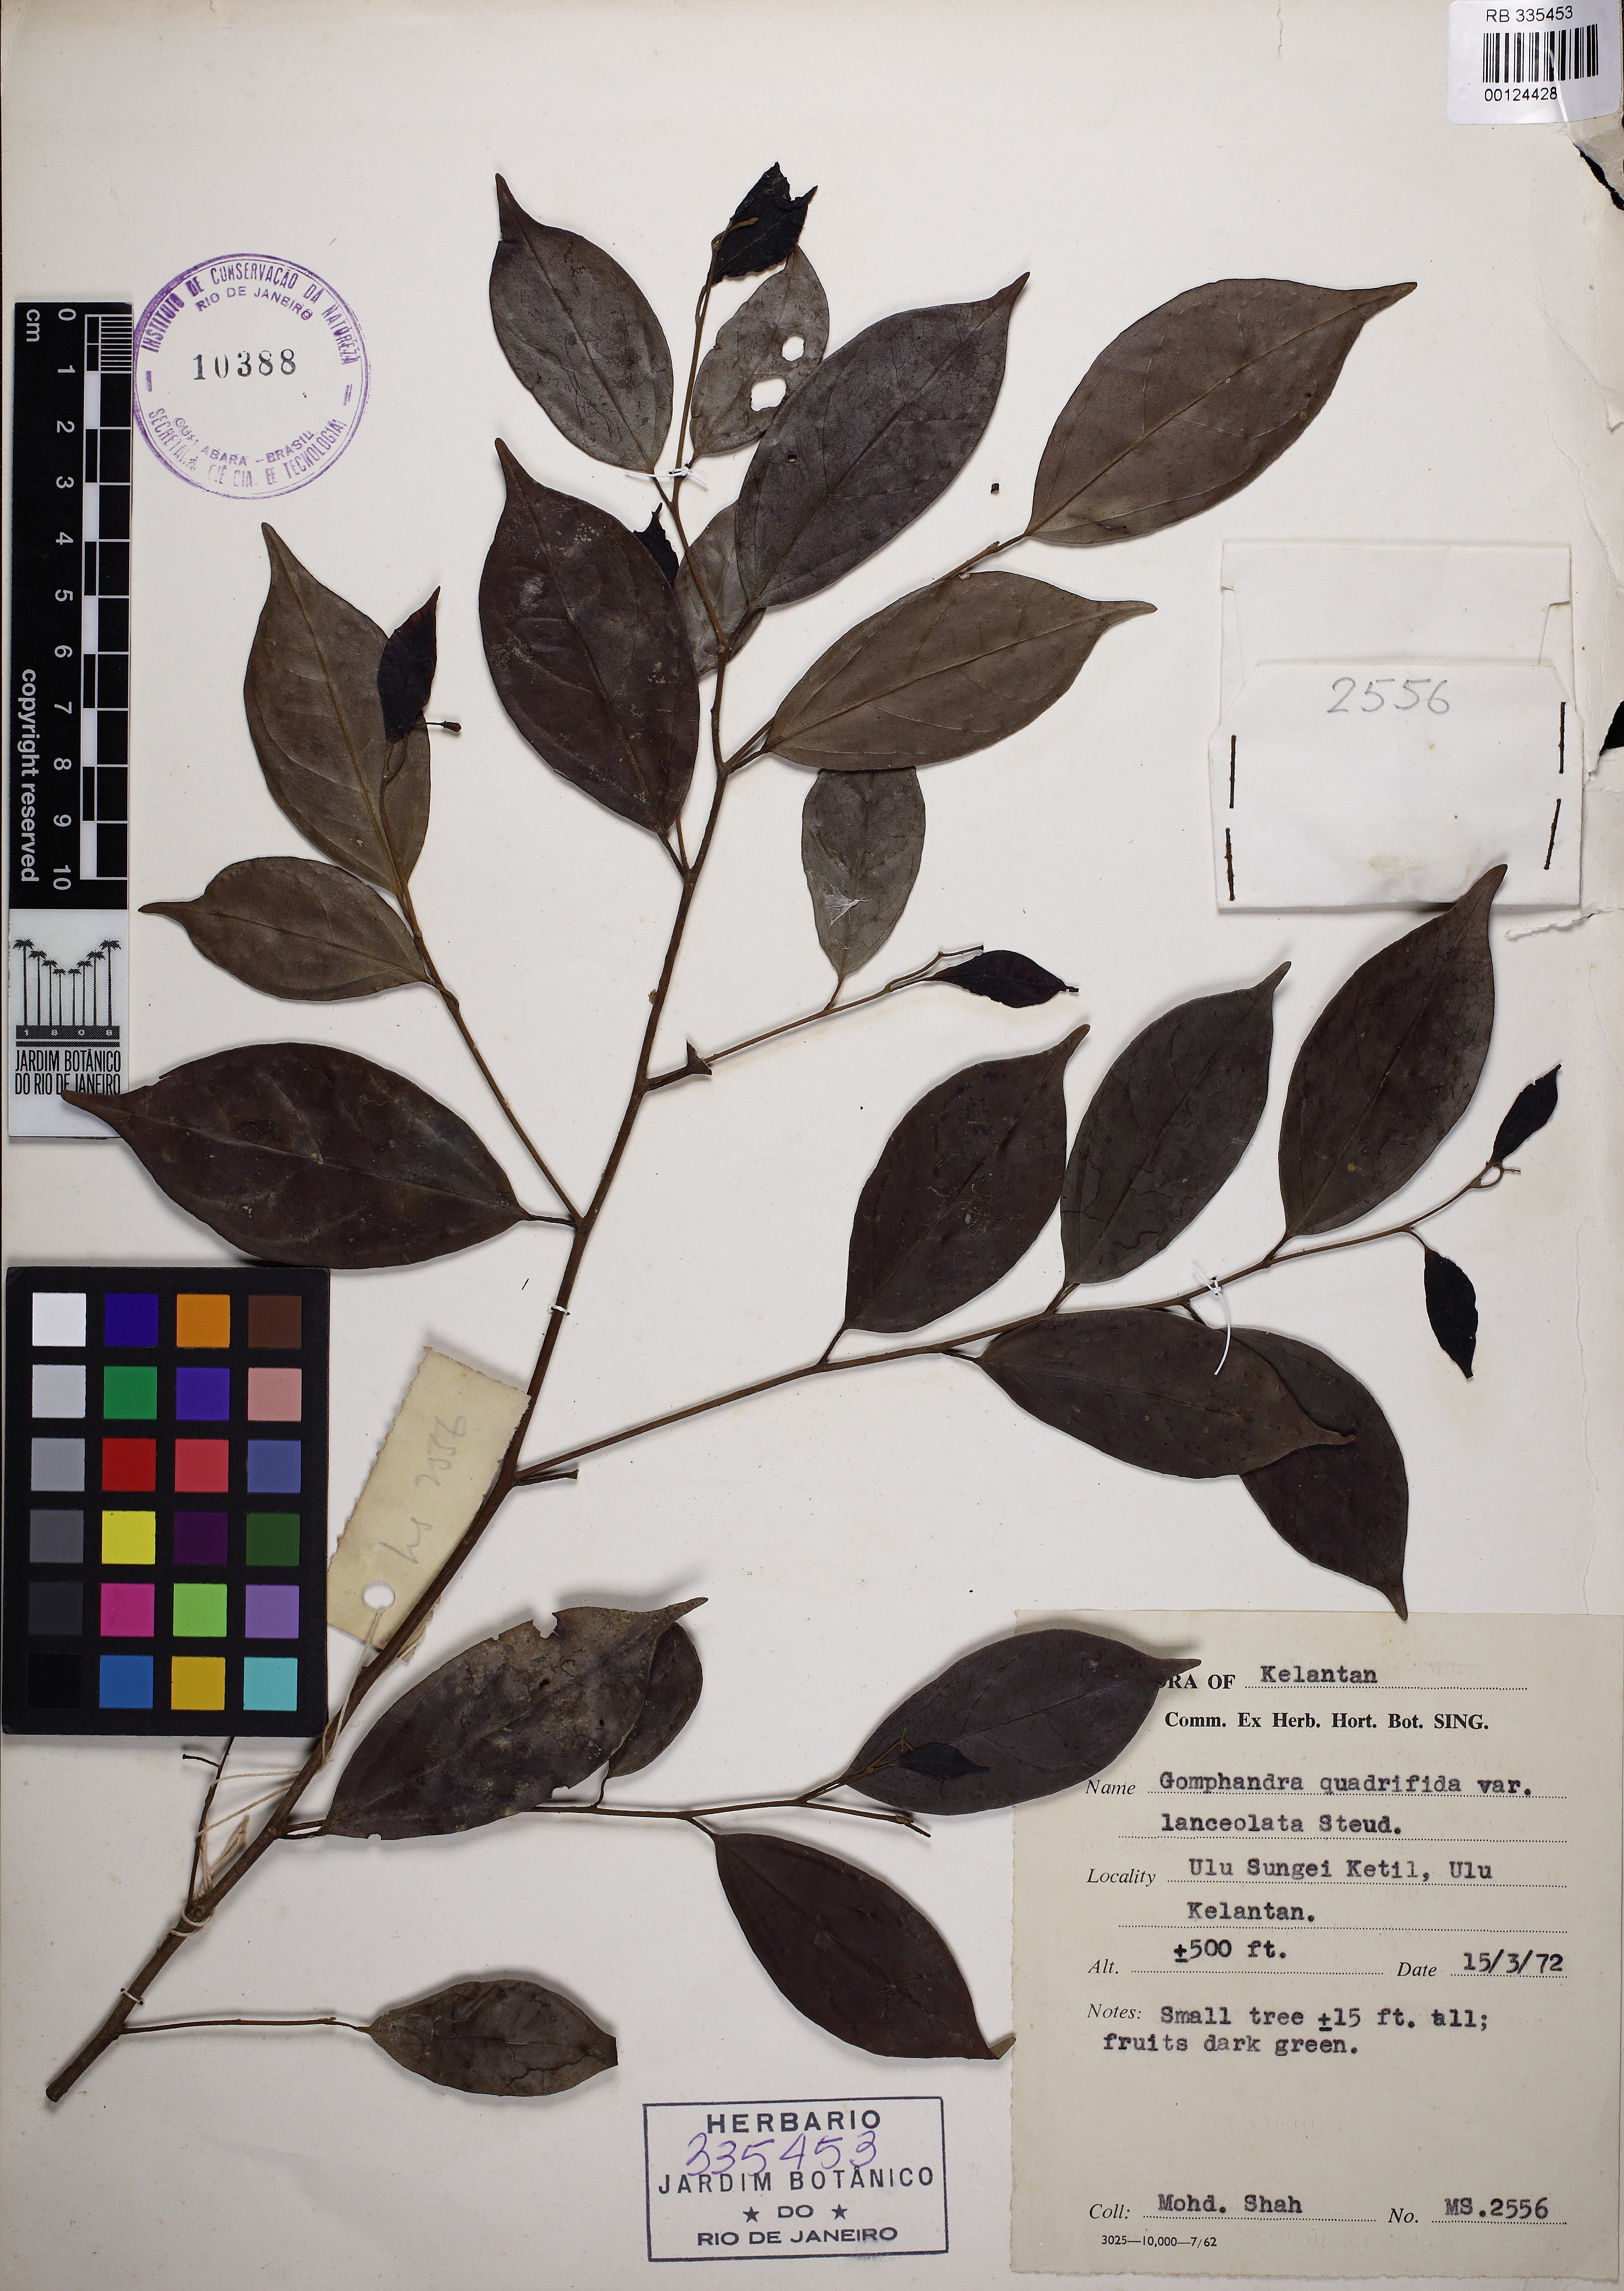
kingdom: Plantae
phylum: Tracheophyta
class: Magnoliopsida
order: Cardiopteridales
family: Stemonuraceae
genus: Gomphandra
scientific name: Gomphandra quadrifida
